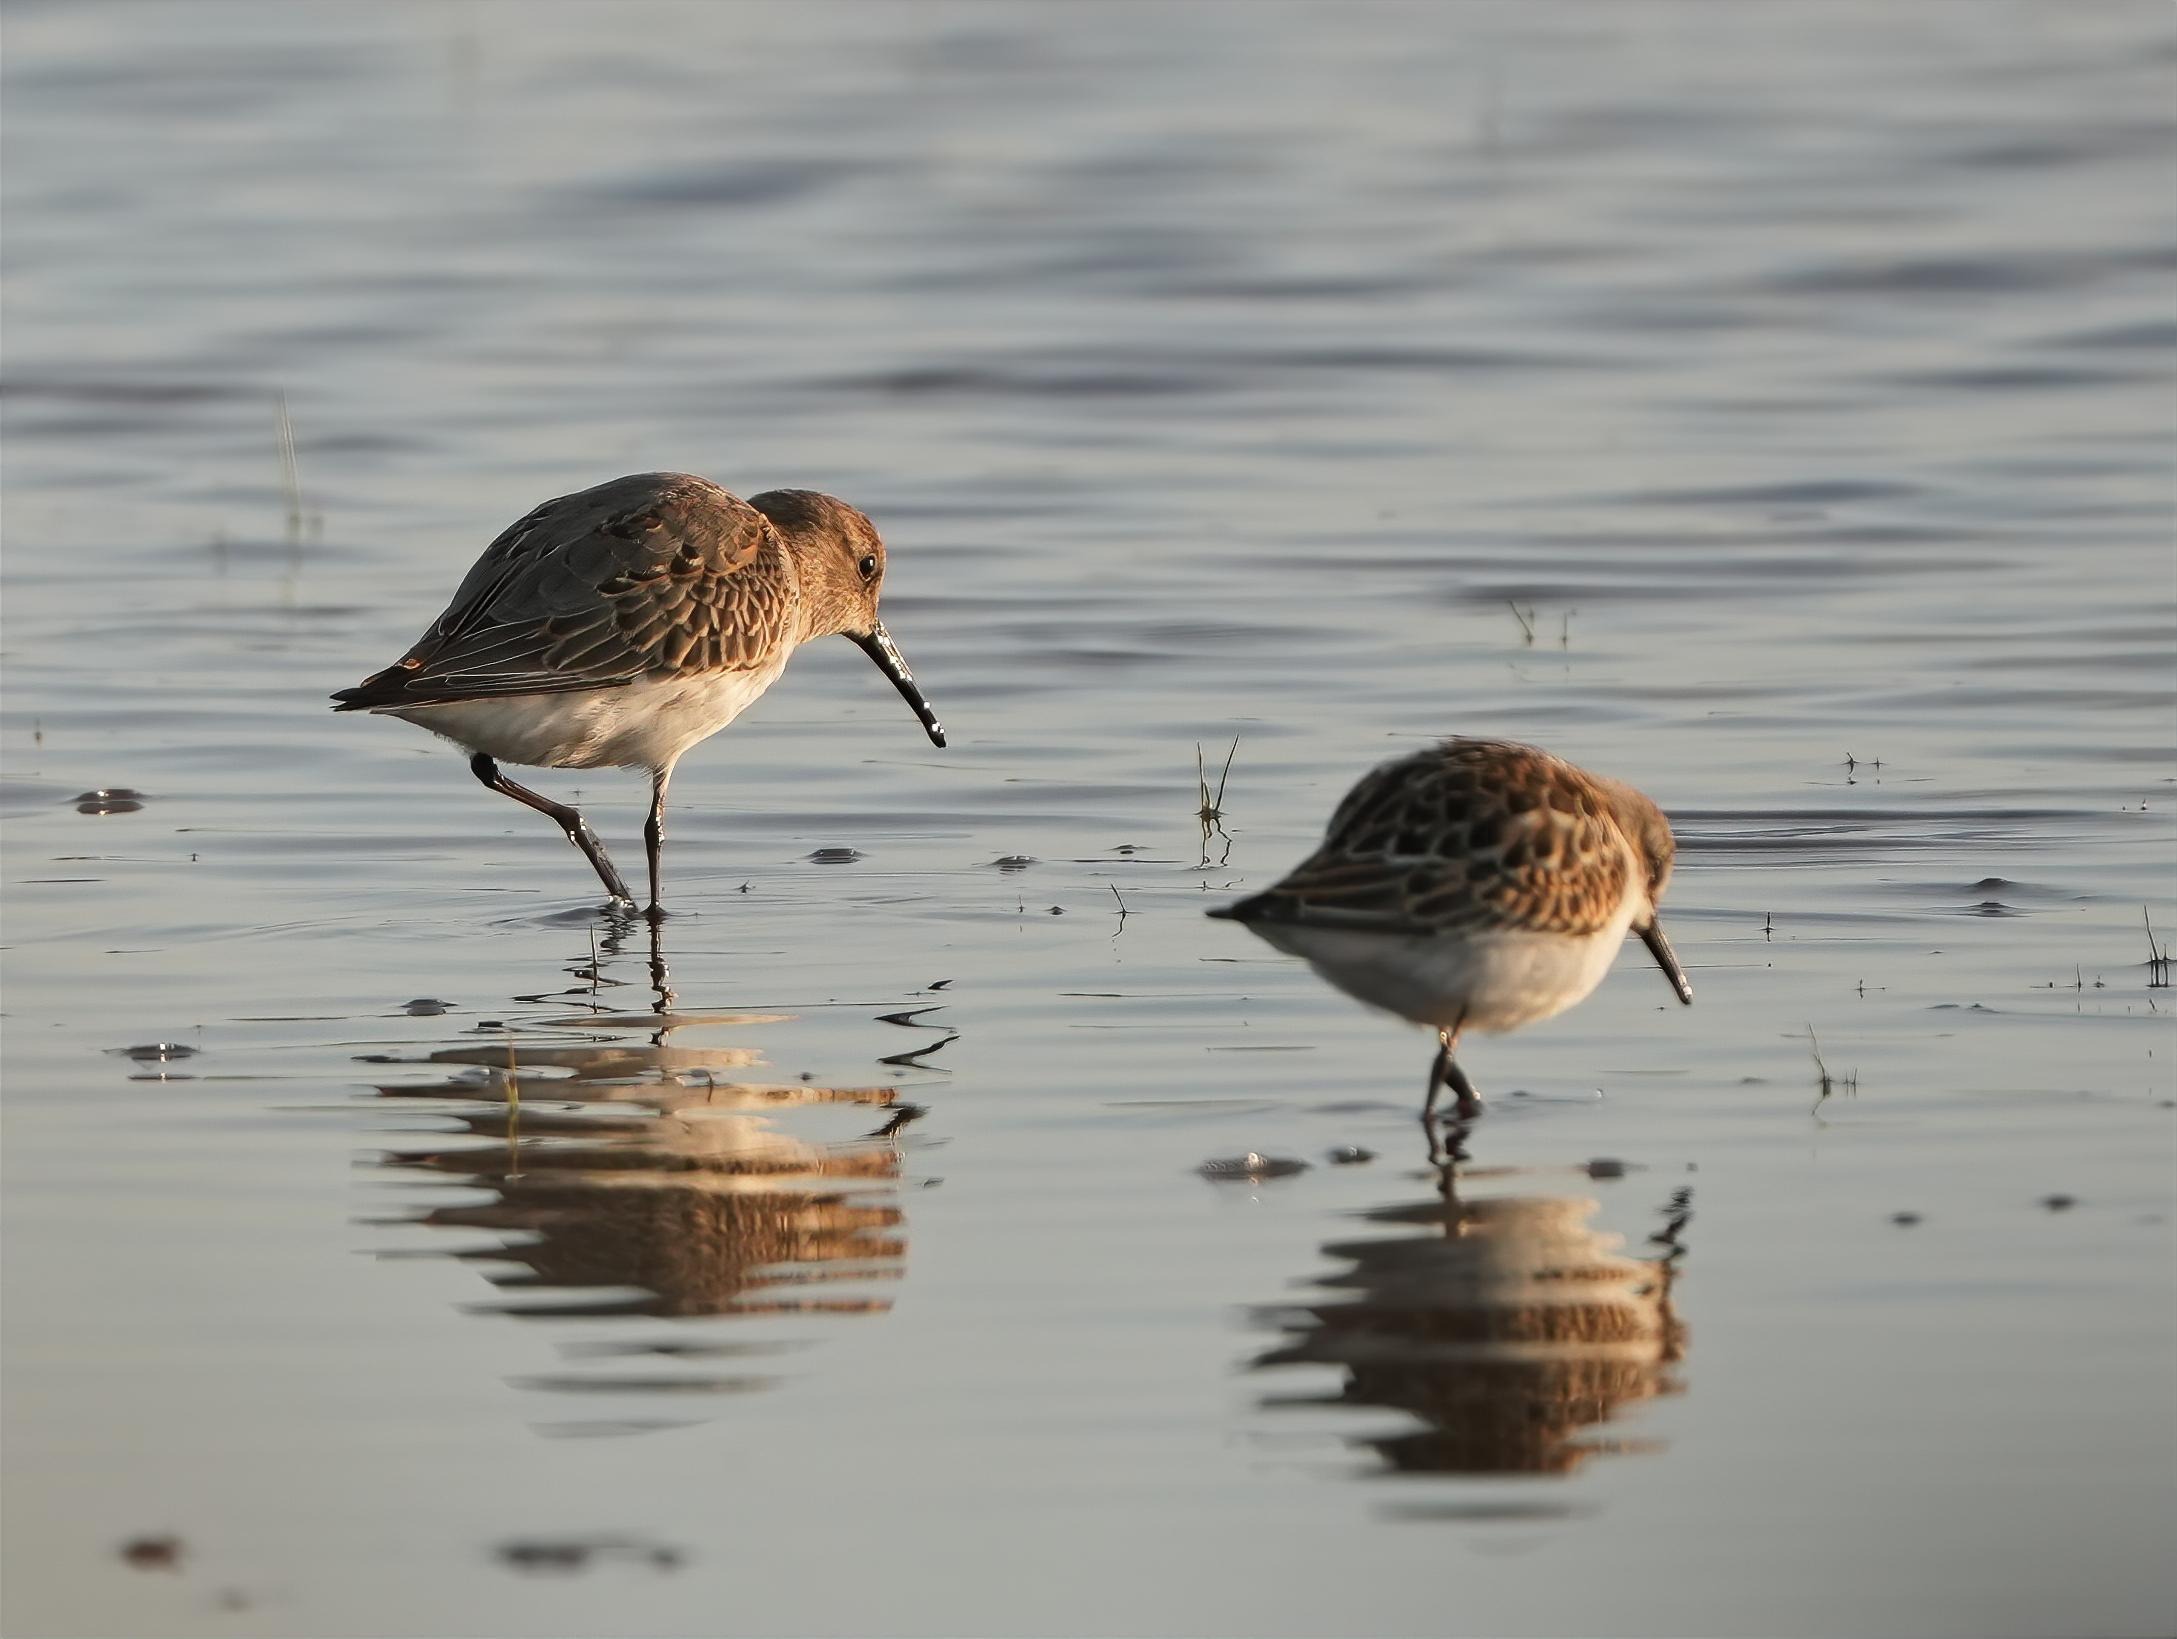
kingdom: Animalia
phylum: Chordata
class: Aves
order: Charadriiformes
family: Scolopacidae
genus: Calidris
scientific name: Calidris alpina
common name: Almindelig ryle
